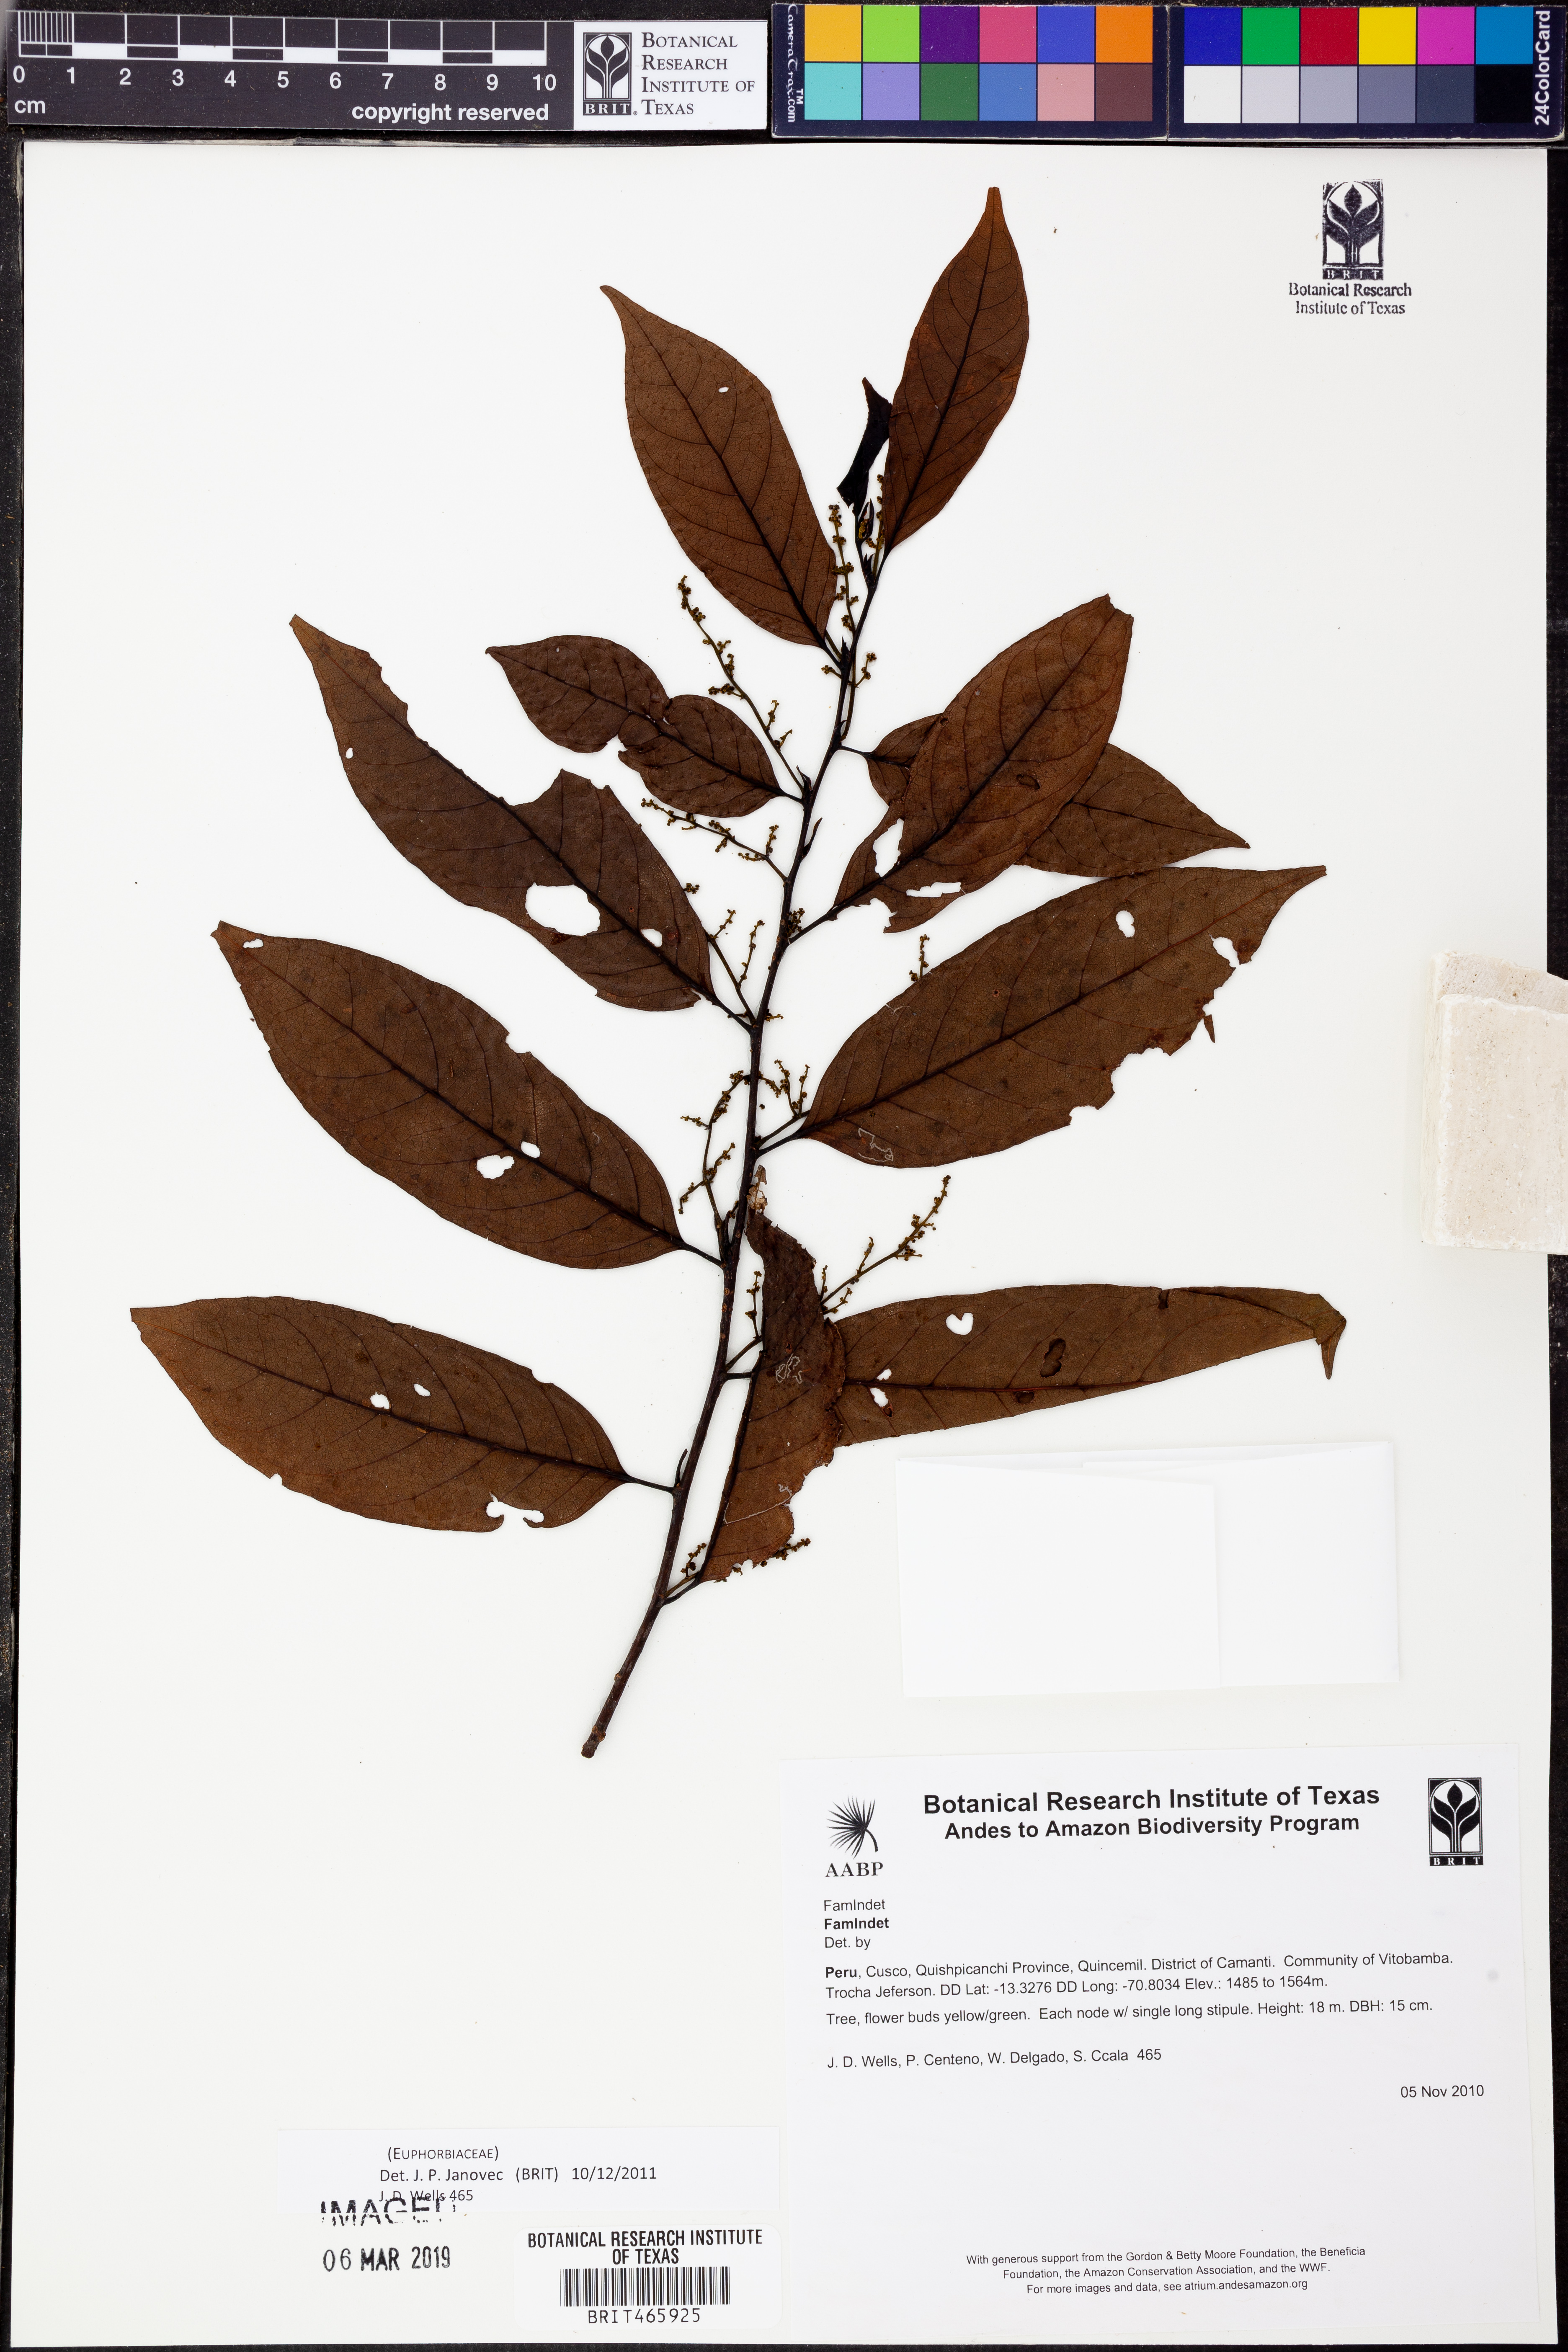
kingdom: Plantae
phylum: Tracheophyta
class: Magnoliopsida
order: Malpighiales
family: Euphorbiaceae
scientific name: Euphorbiaceae
